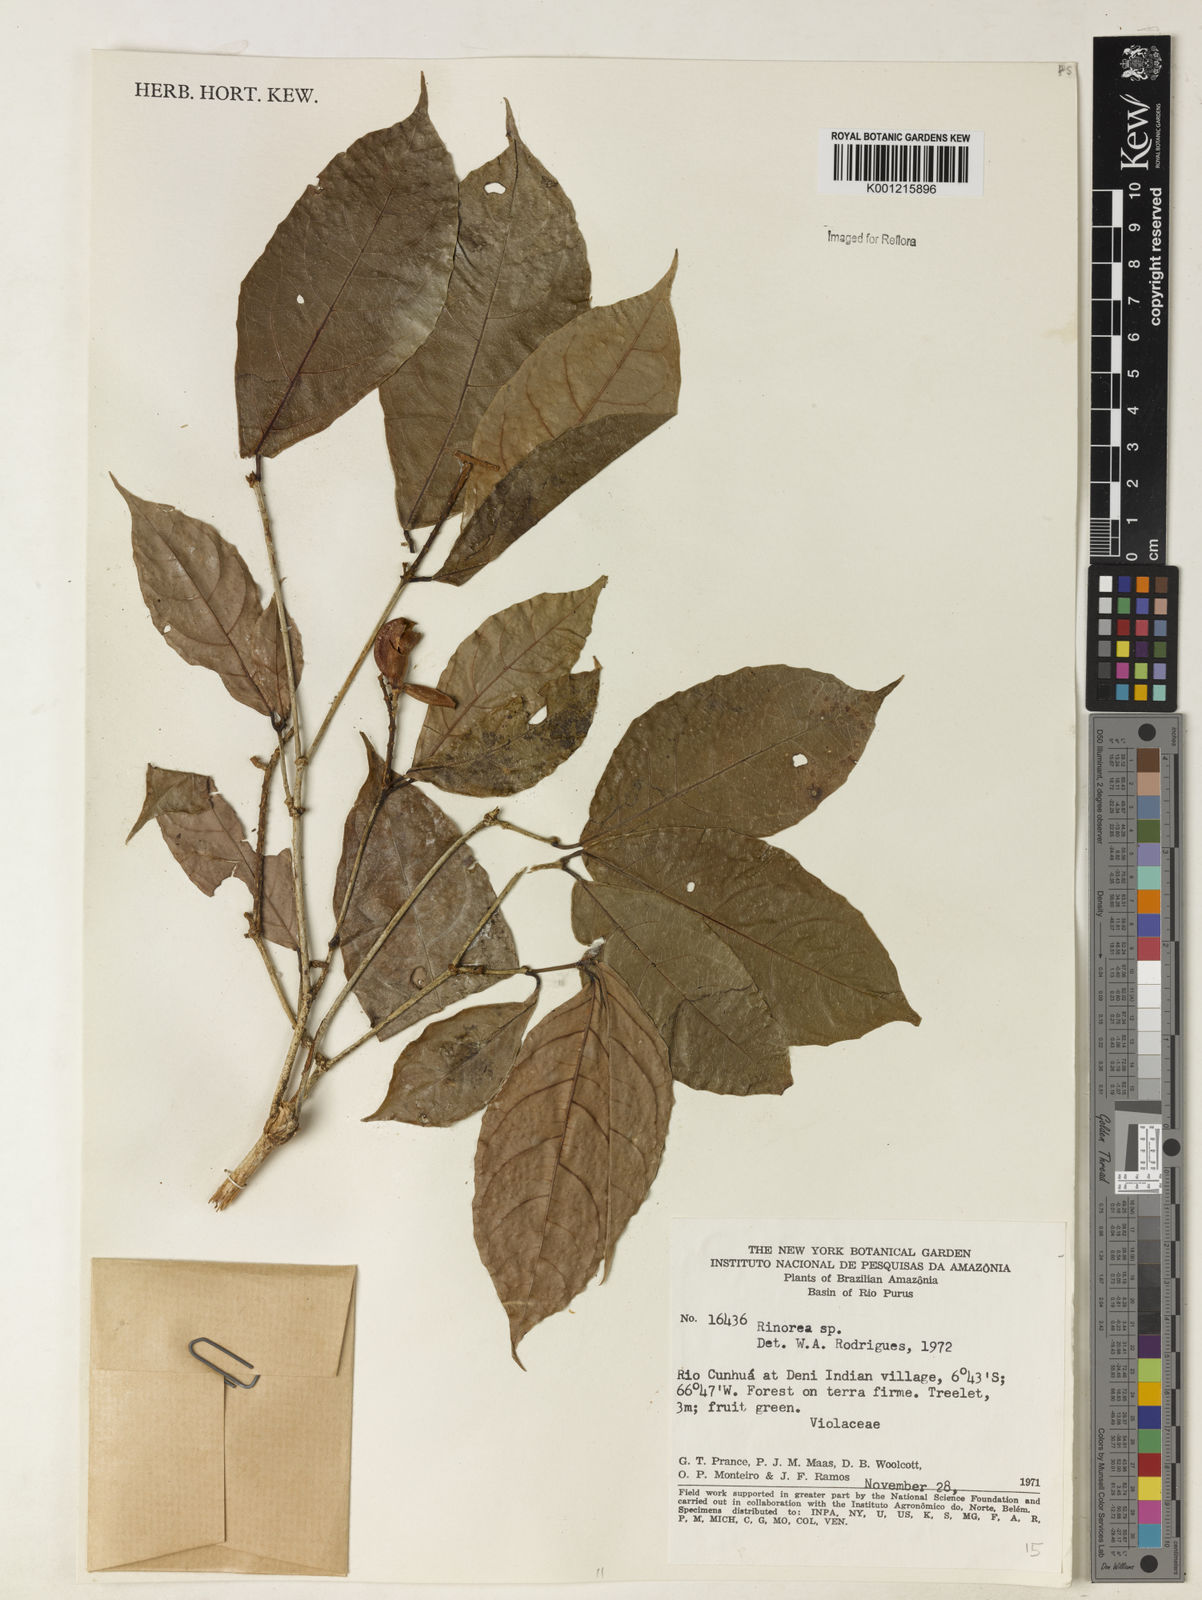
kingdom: Plantae
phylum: Tracheophyta
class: Magnoliopsida
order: Malpighiales
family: Violaceae
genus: Rinorea
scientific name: Rinorea
